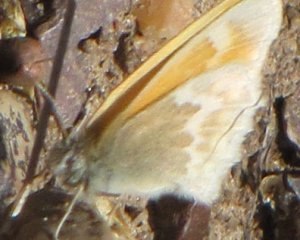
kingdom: Animalia
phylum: Arthropoda
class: Insecta
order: Lepidoptera
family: Nymphalidae
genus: Coenonympha
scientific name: Coenonympha tullia
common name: Large Heath
